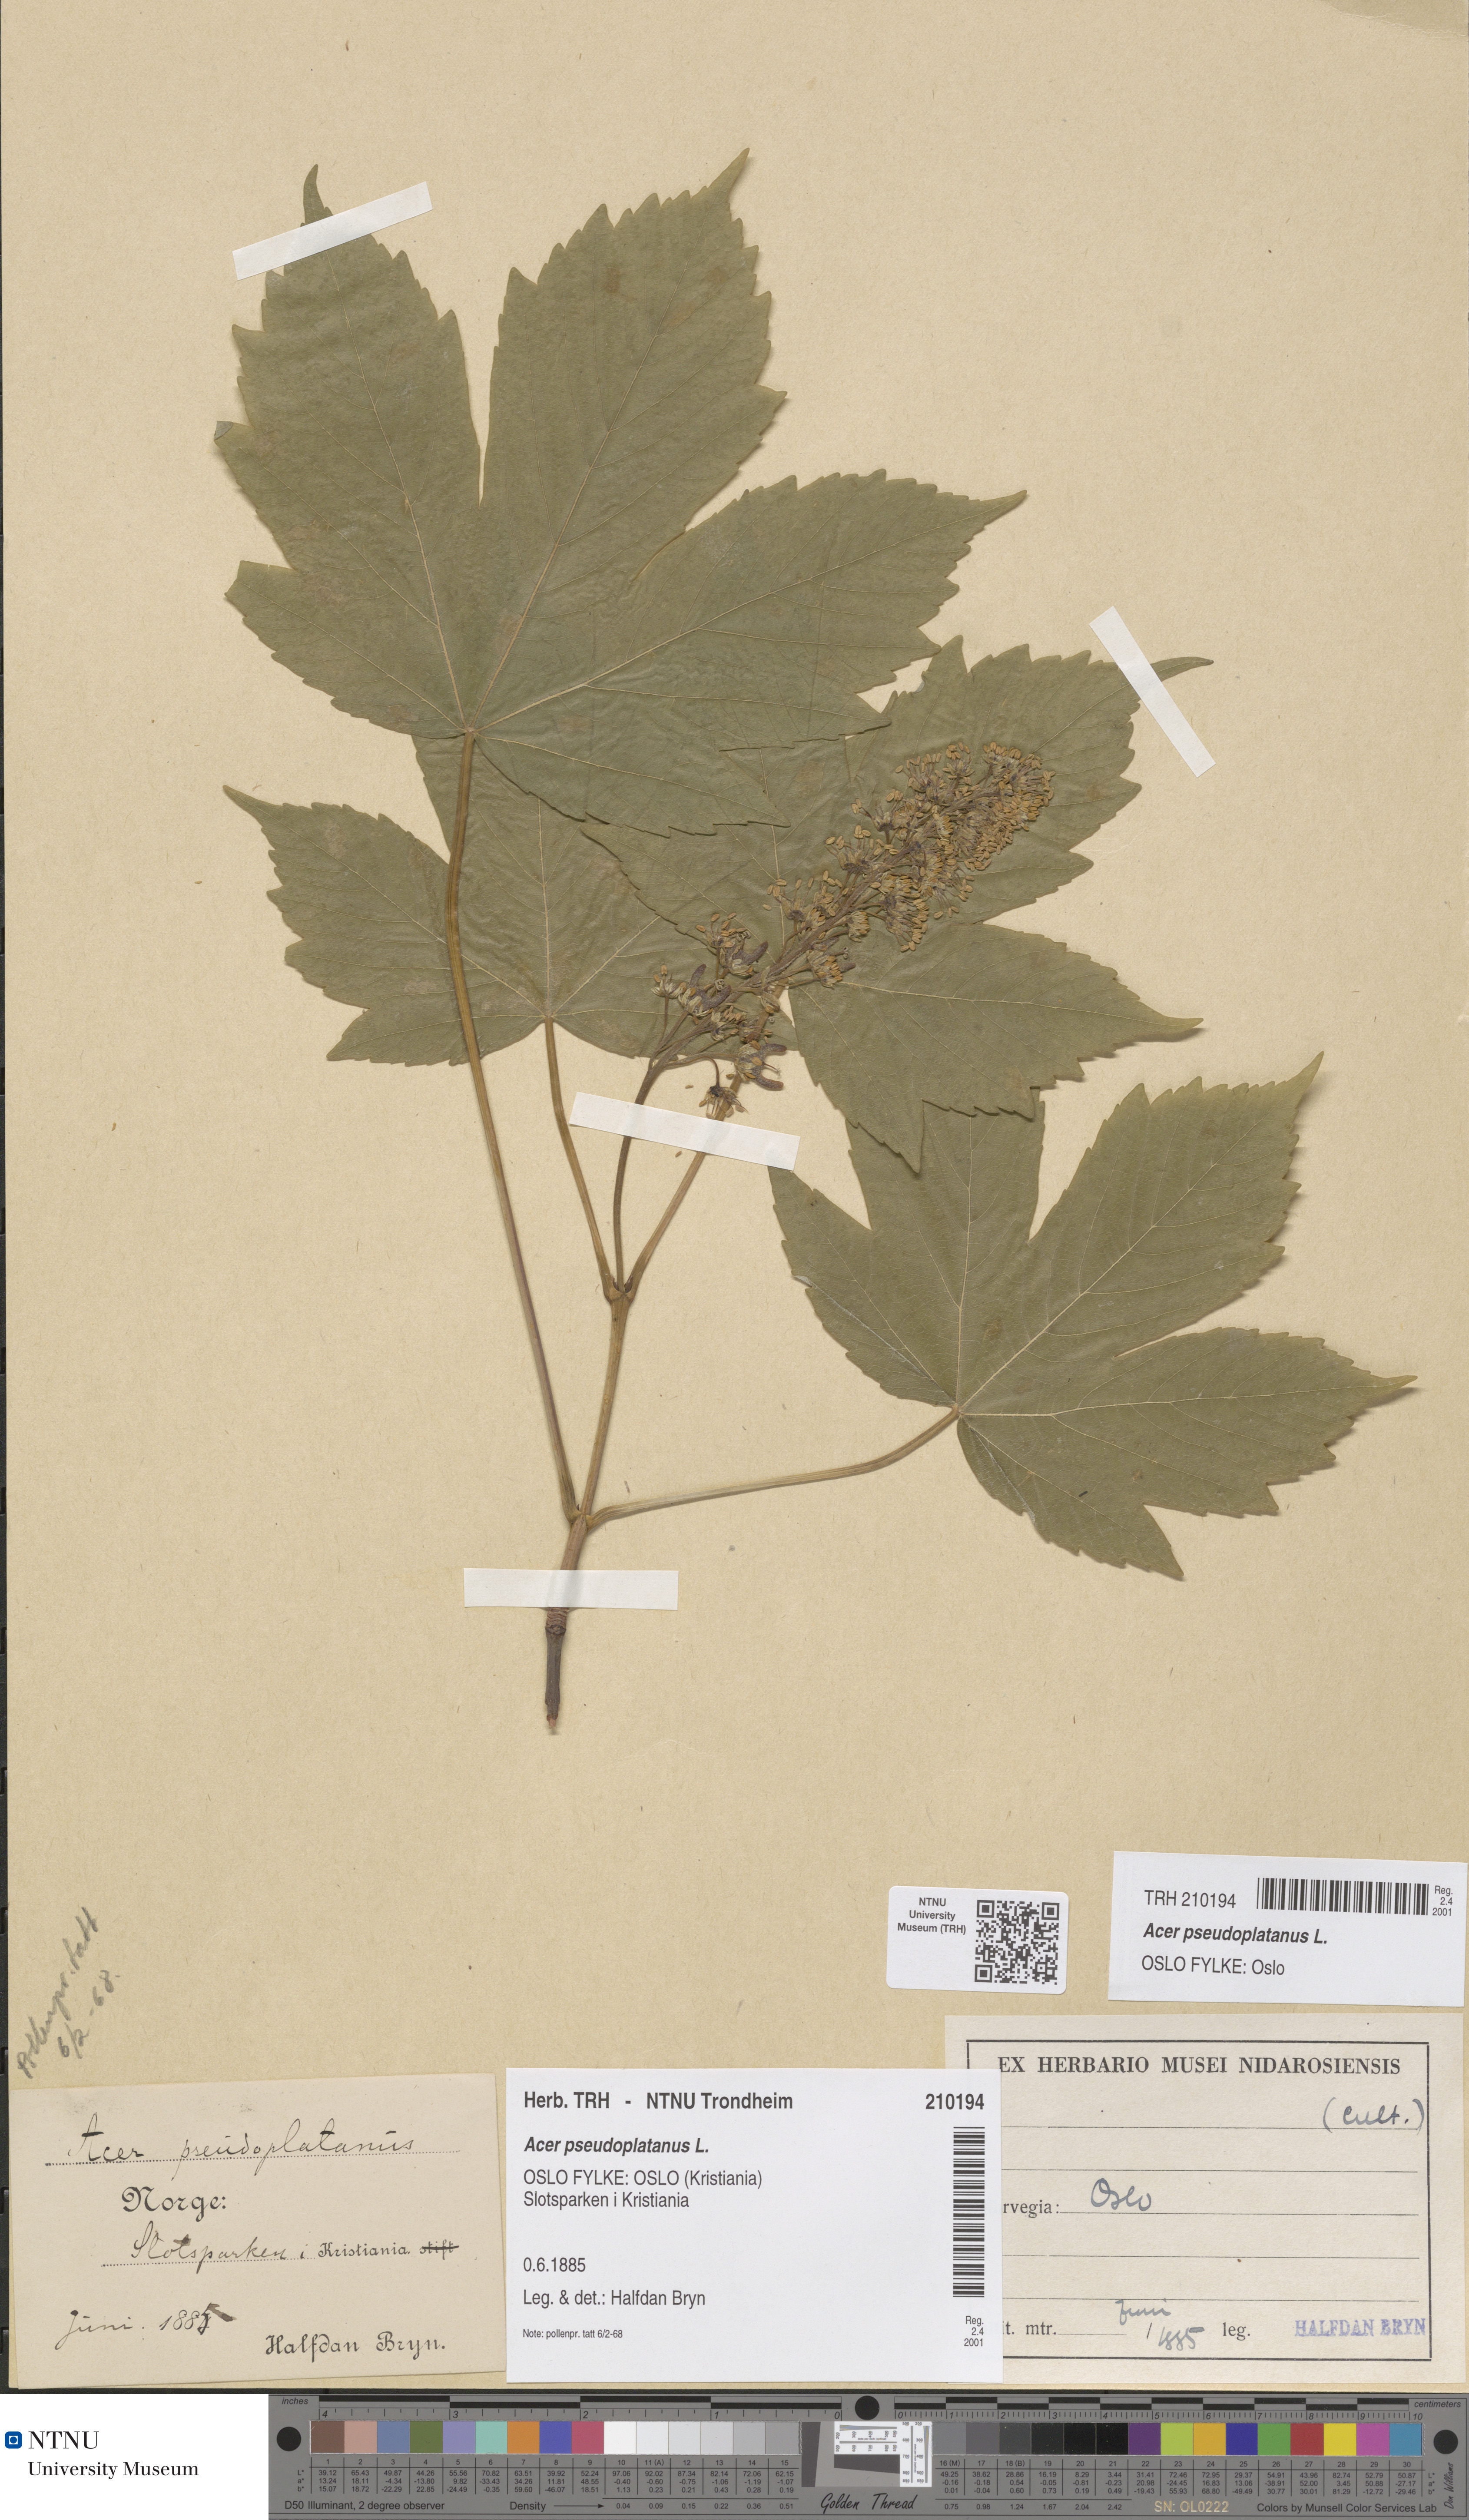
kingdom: Plantae
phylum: Tracheophyta
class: Magnoliopsida
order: Sapindales
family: Sapindaceae
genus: Acer
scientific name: Acer pseudoplatanus
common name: Sycamore
